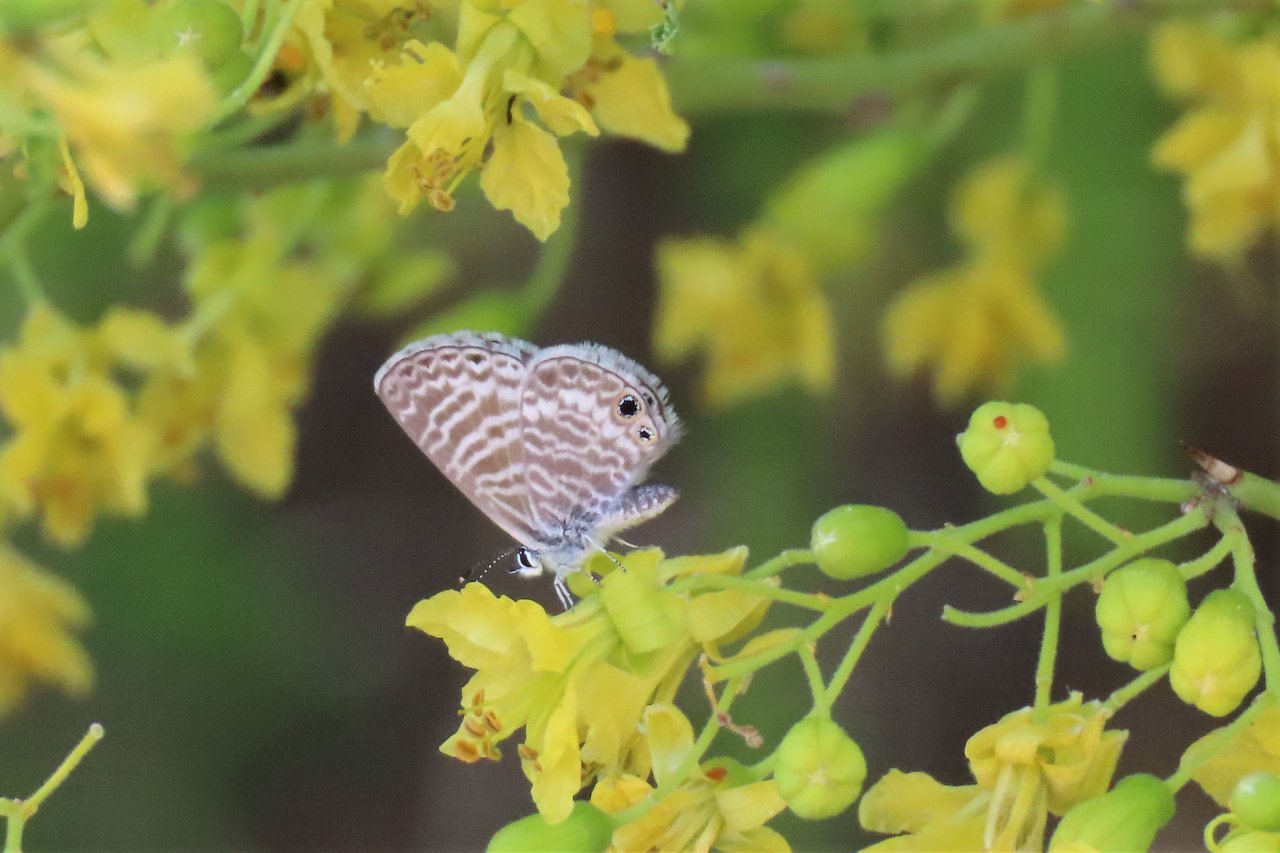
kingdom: Animalia
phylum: Arthropoda
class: Insecta
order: Lepidoptera
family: Lycaenidae
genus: Leptotes
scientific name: Leptotes marina
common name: Marine Blue
